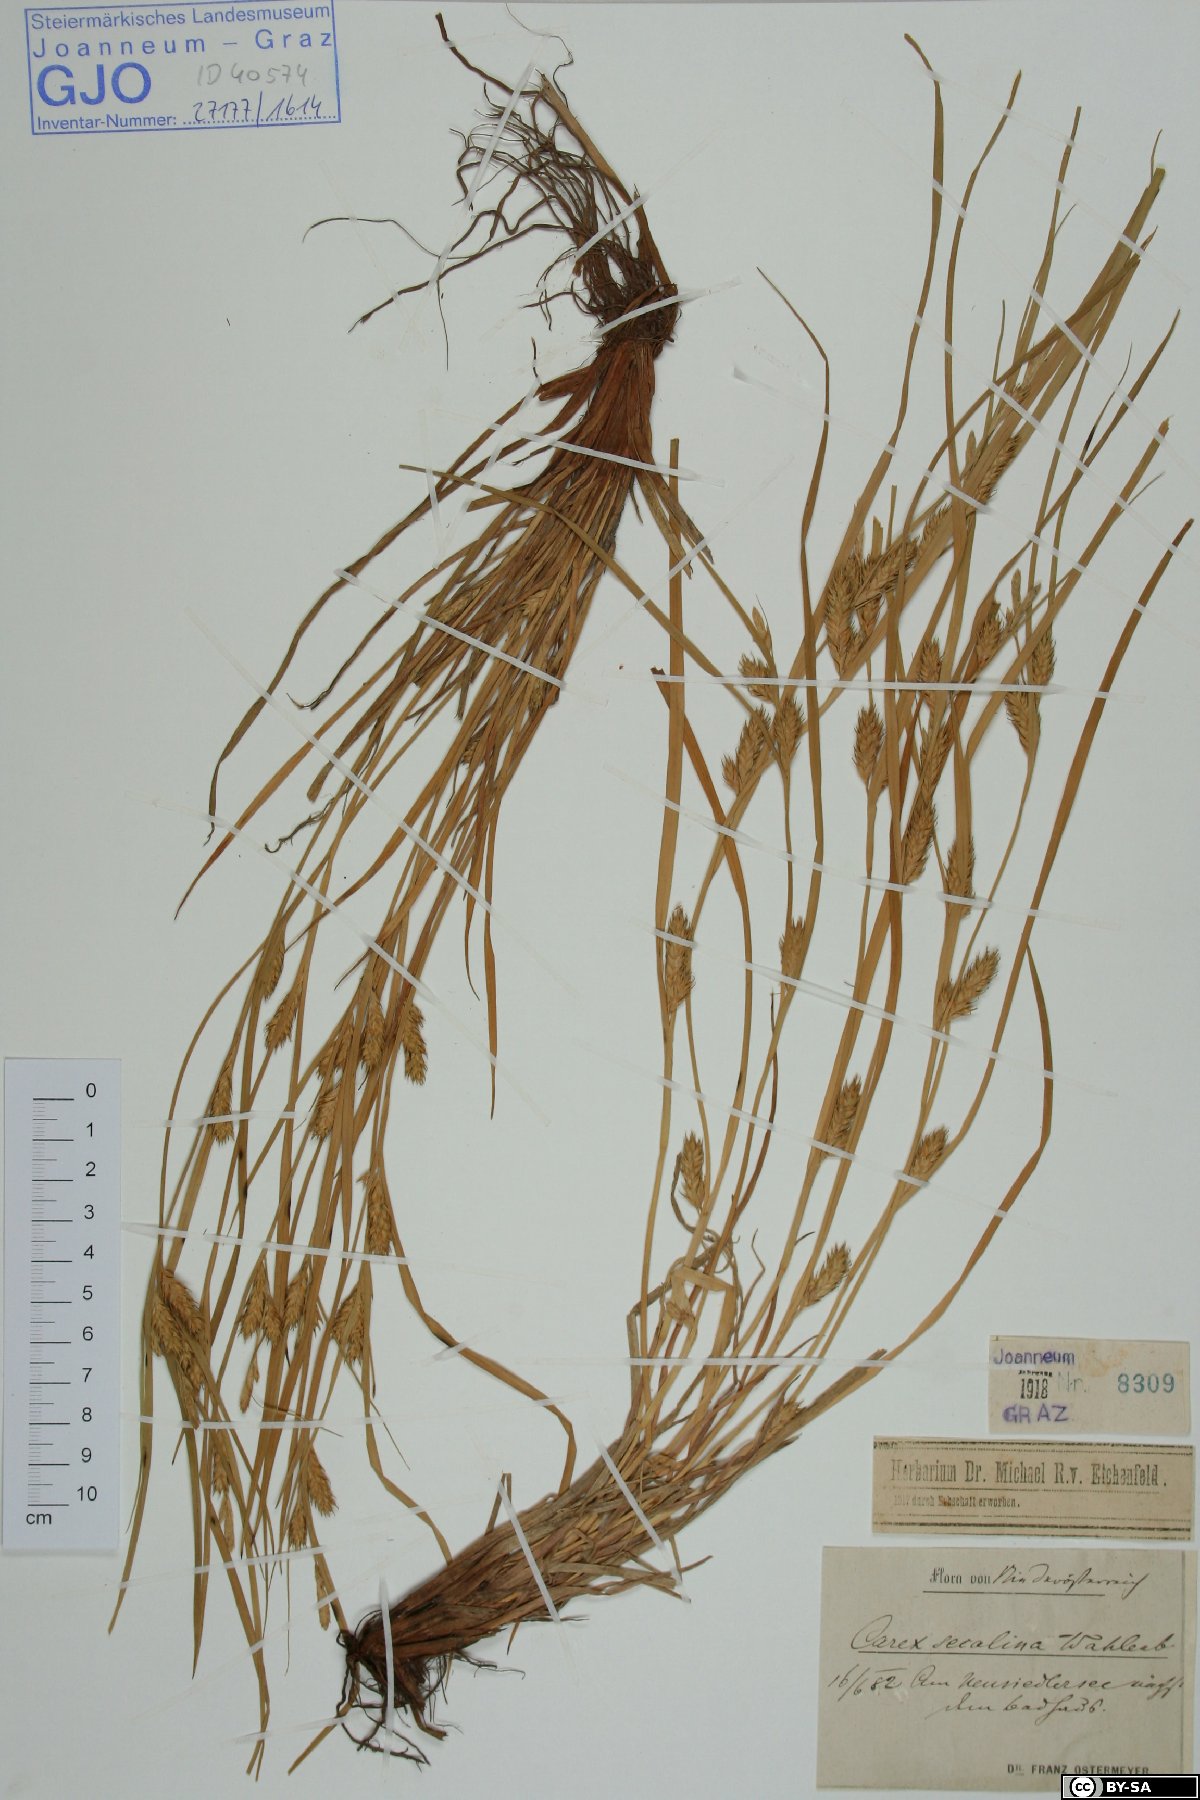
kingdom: Plantae
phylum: Tracheophyta
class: Liliopsida
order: Poales
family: Cyperaceae
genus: Carex
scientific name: Carex secalina
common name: Rye sedge
